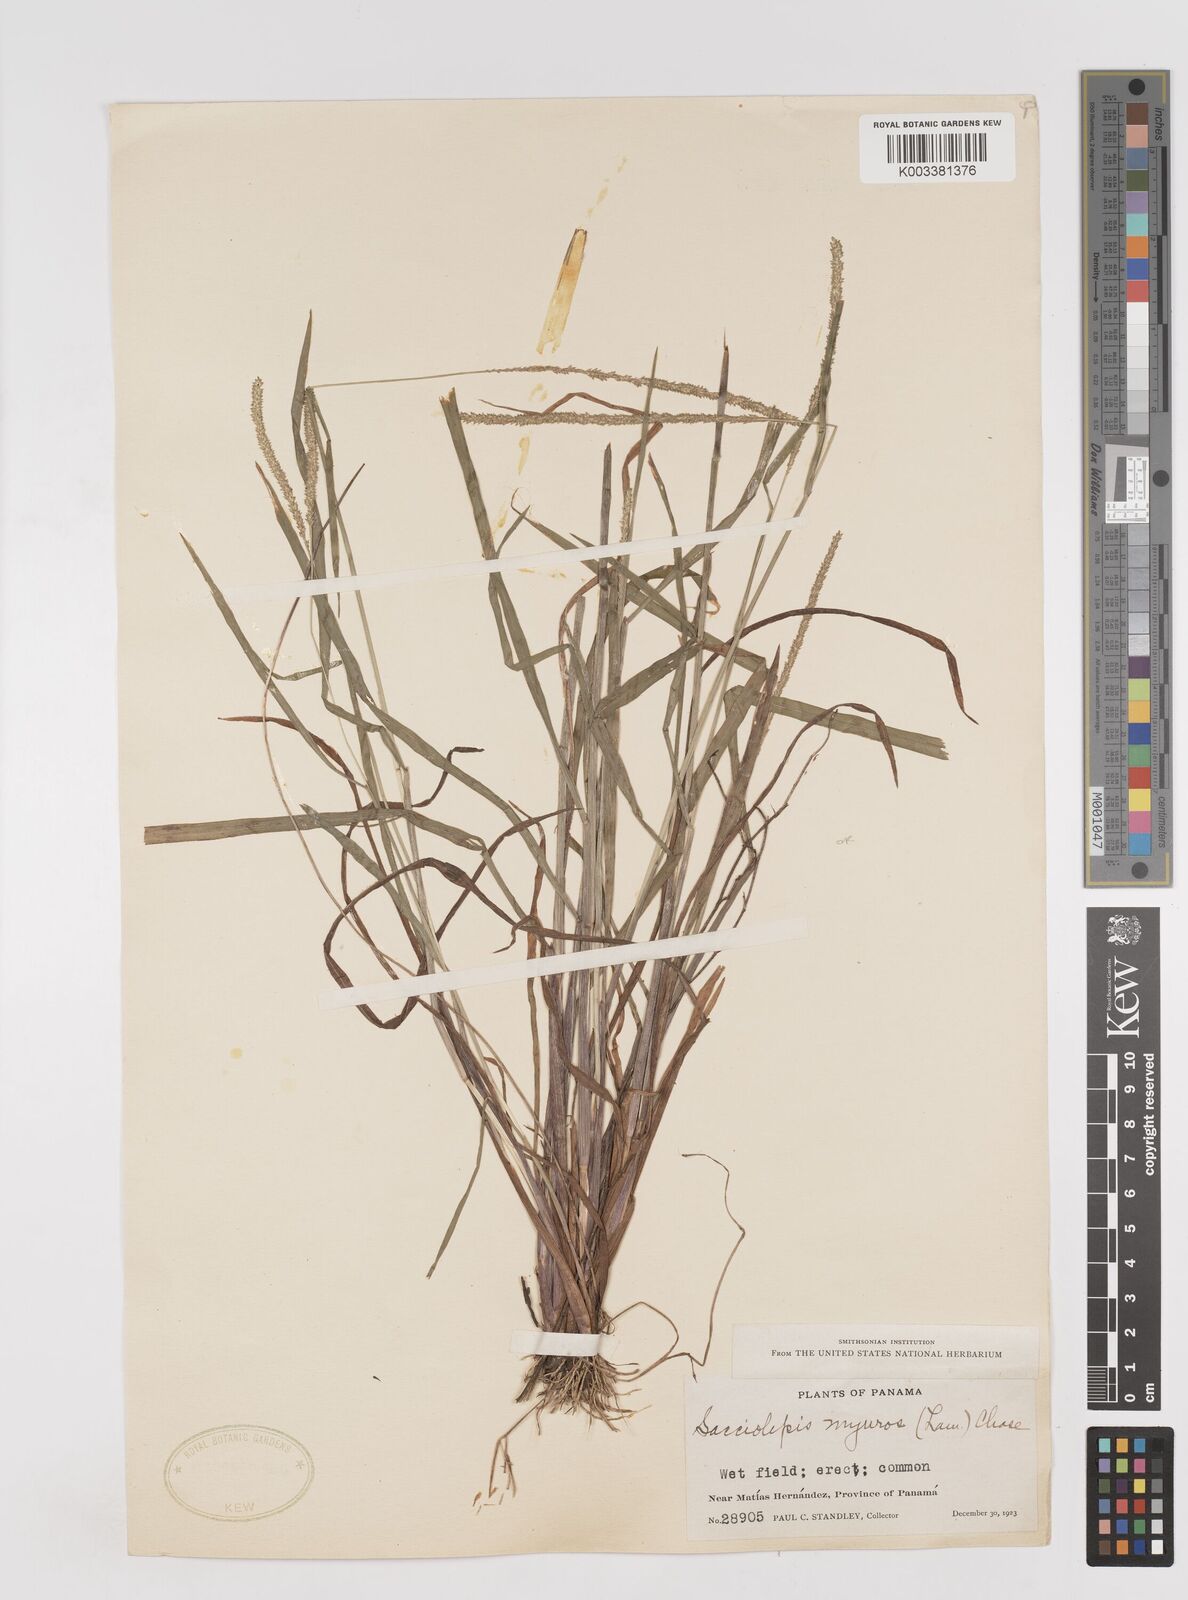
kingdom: Plantae
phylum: Tracheophyta
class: Liliopsida
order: Poales
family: Poaceae
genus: Sacciolepis
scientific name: Sacciolepis myuros
